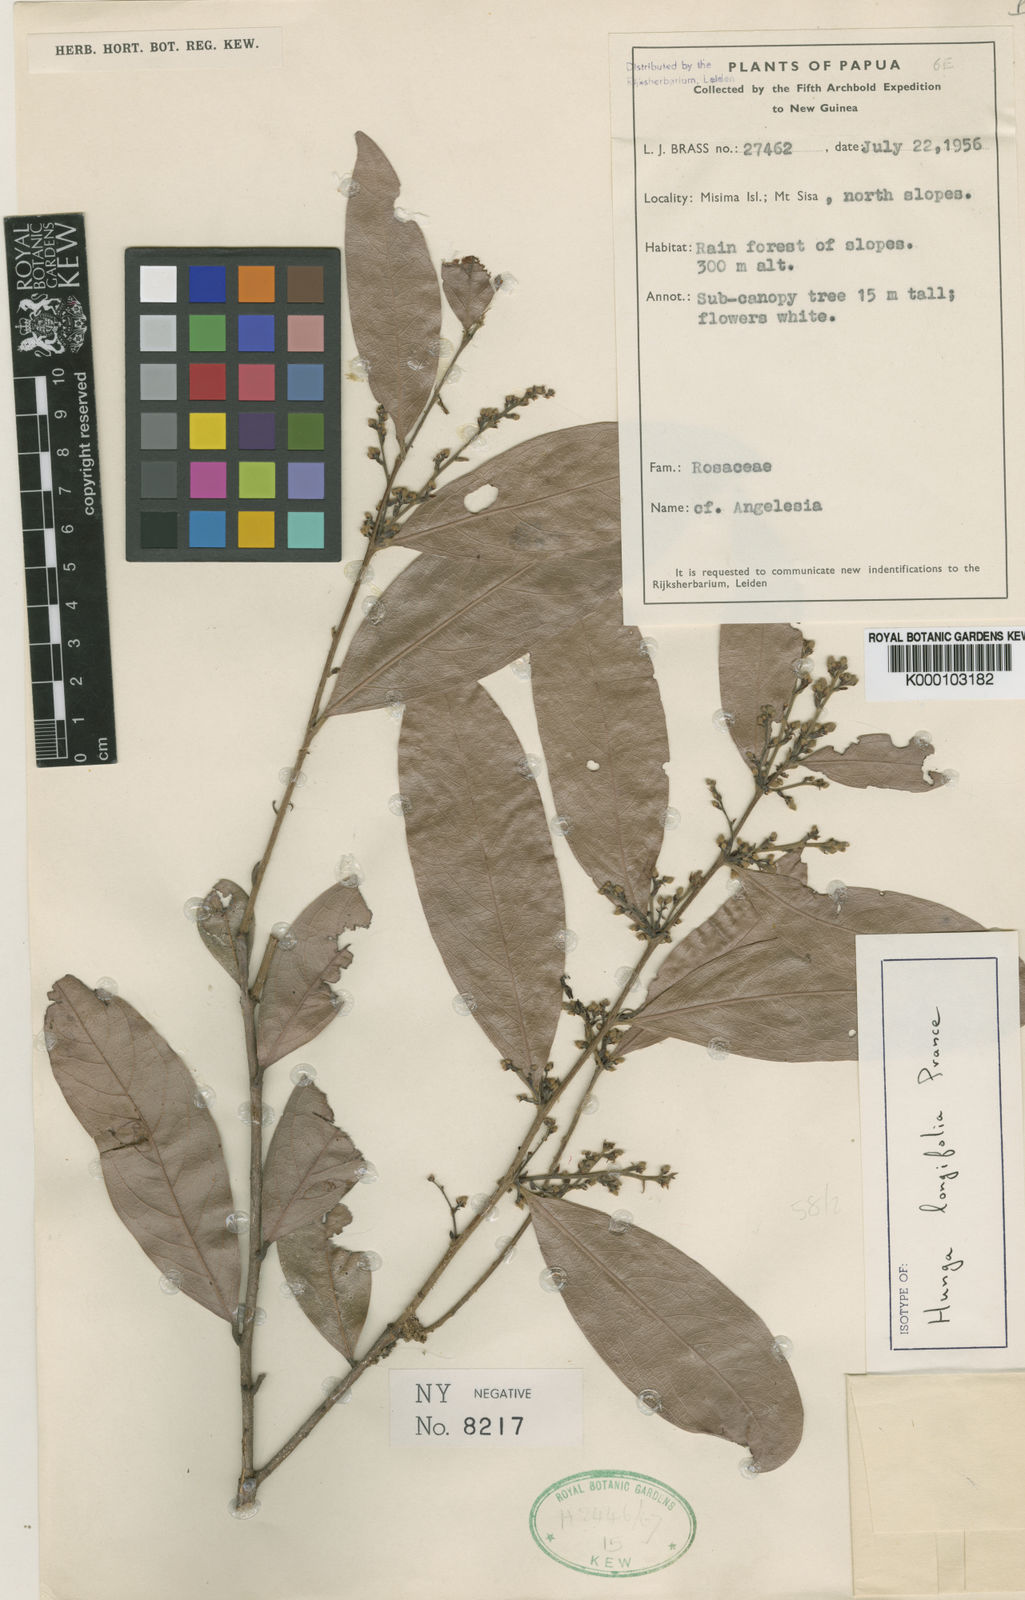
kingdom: Plantae
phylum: Tracheophyta
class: Magnoliopsida
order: Malpighiales
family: Chrysobalanaceae
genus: Hunga
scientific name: Hunga longifolia
